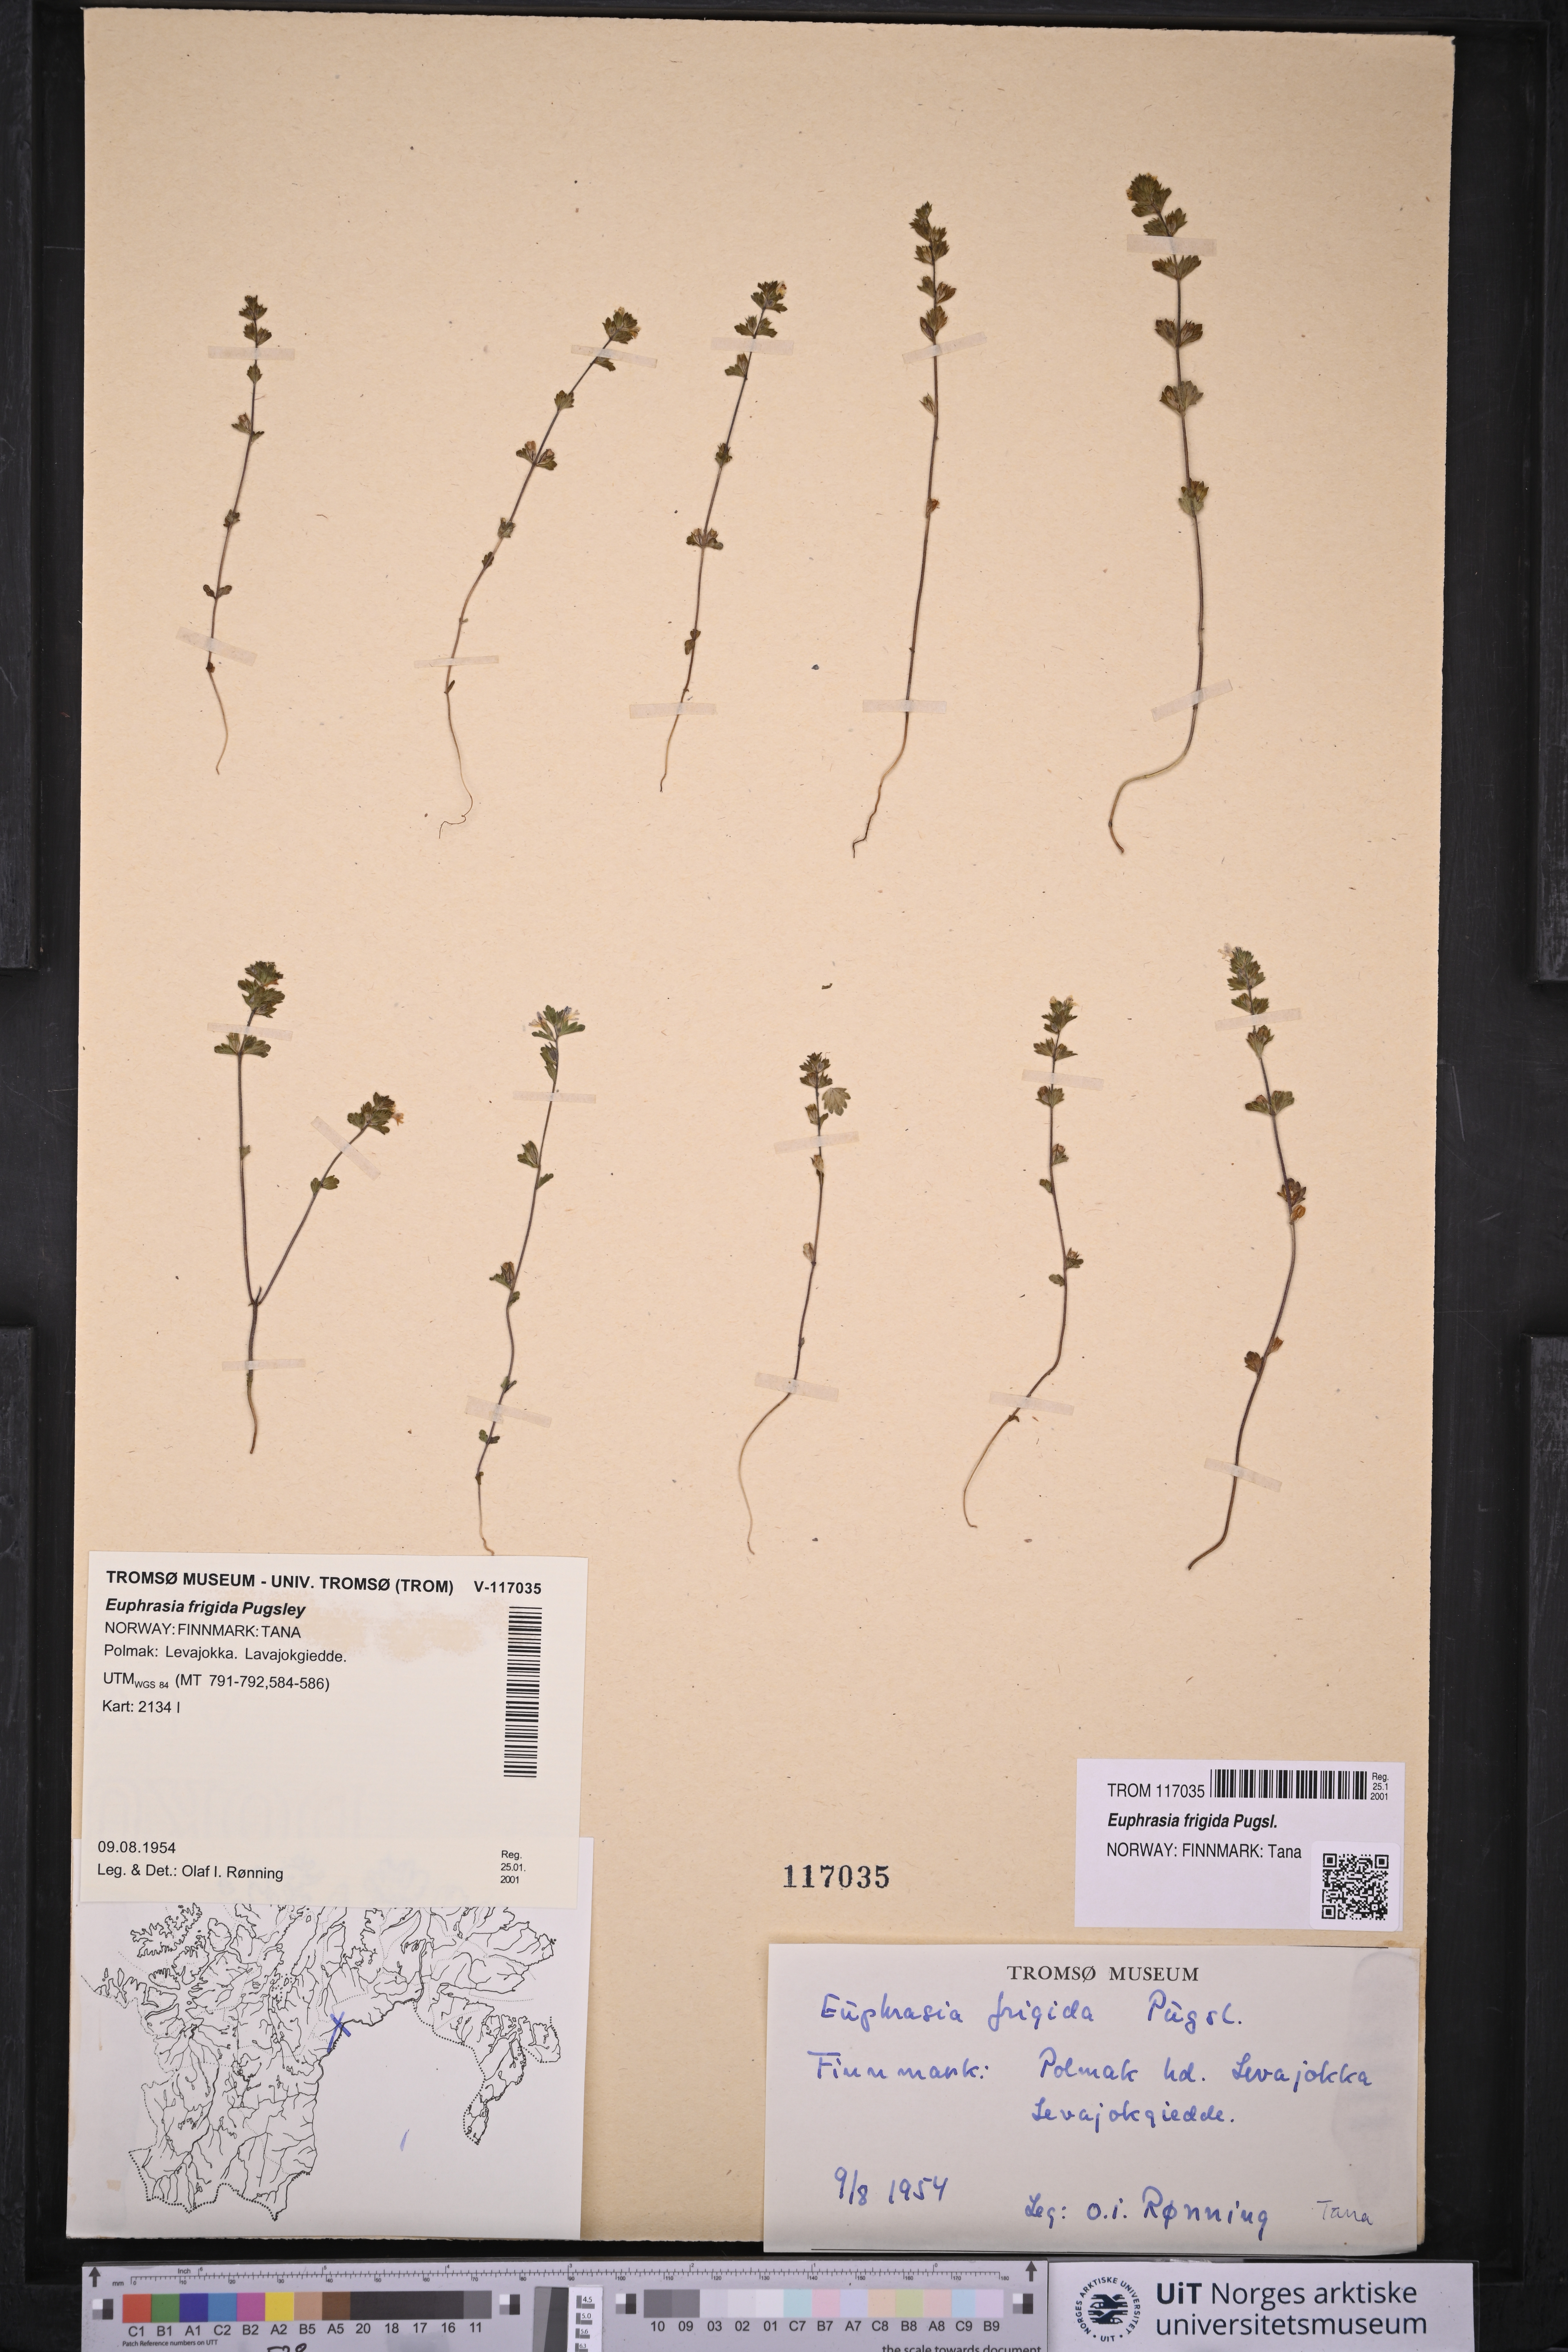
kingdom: Plantae
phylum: Tracheophyta
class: Magnoliopsida
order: Lamiales
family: Orobanchaceae
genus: Euphrasia
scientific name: Euphrasia frigida
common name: An eyebright
